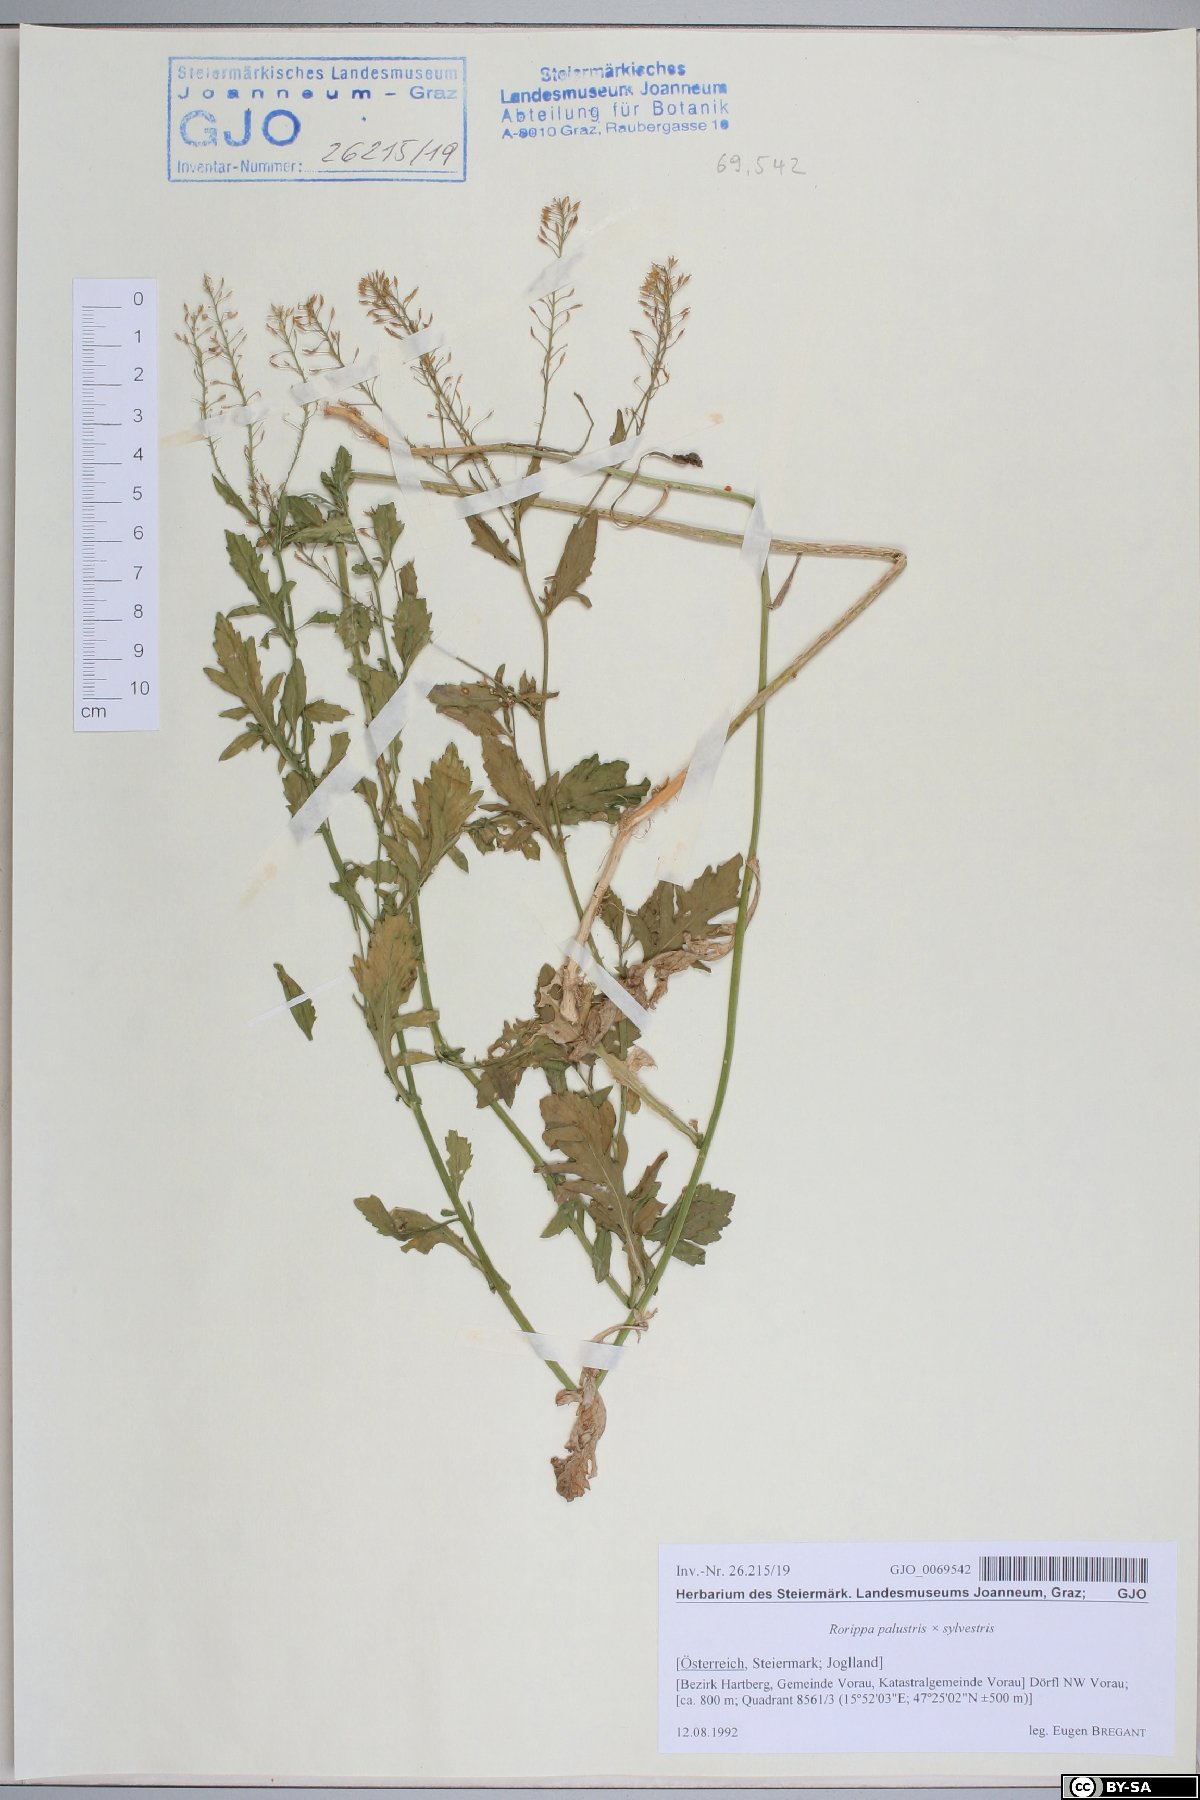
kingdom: Plantae
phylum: Tracheophyta
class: Magnoliopsida
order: Brassicales
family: Brassicaceae
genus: Rorippa
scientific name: Rorippa palustris
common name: Marsh yellow-cress
